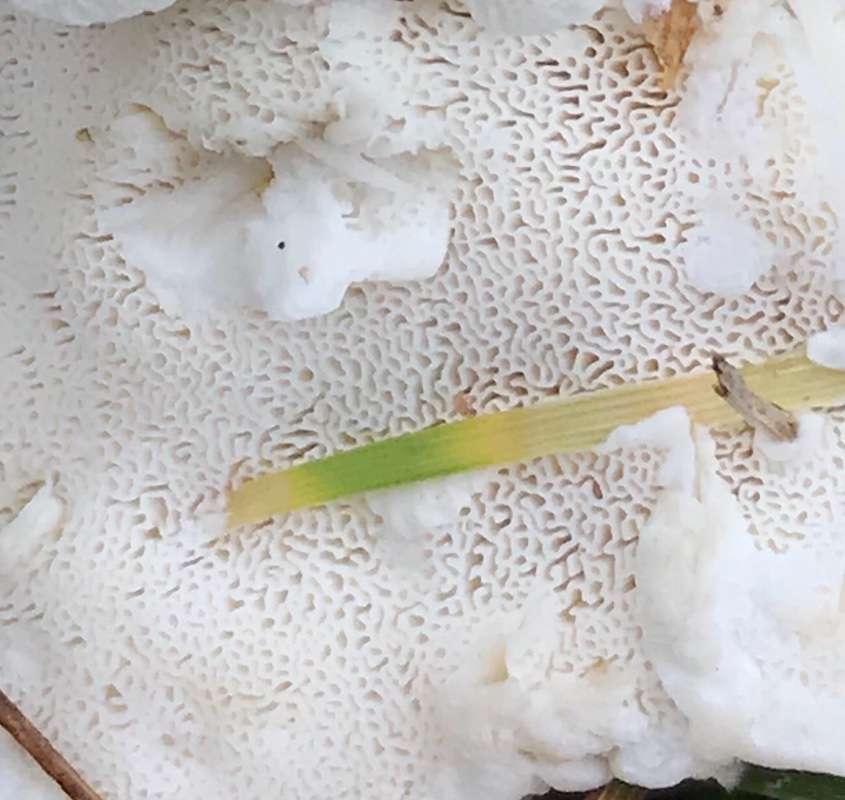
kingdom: Fungi
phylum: Basidiomycota
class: Agaricomycetes
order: Polyporales
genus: Amaropostia
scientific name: Amaropostia stiptica
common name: bitter kødporesvamp
